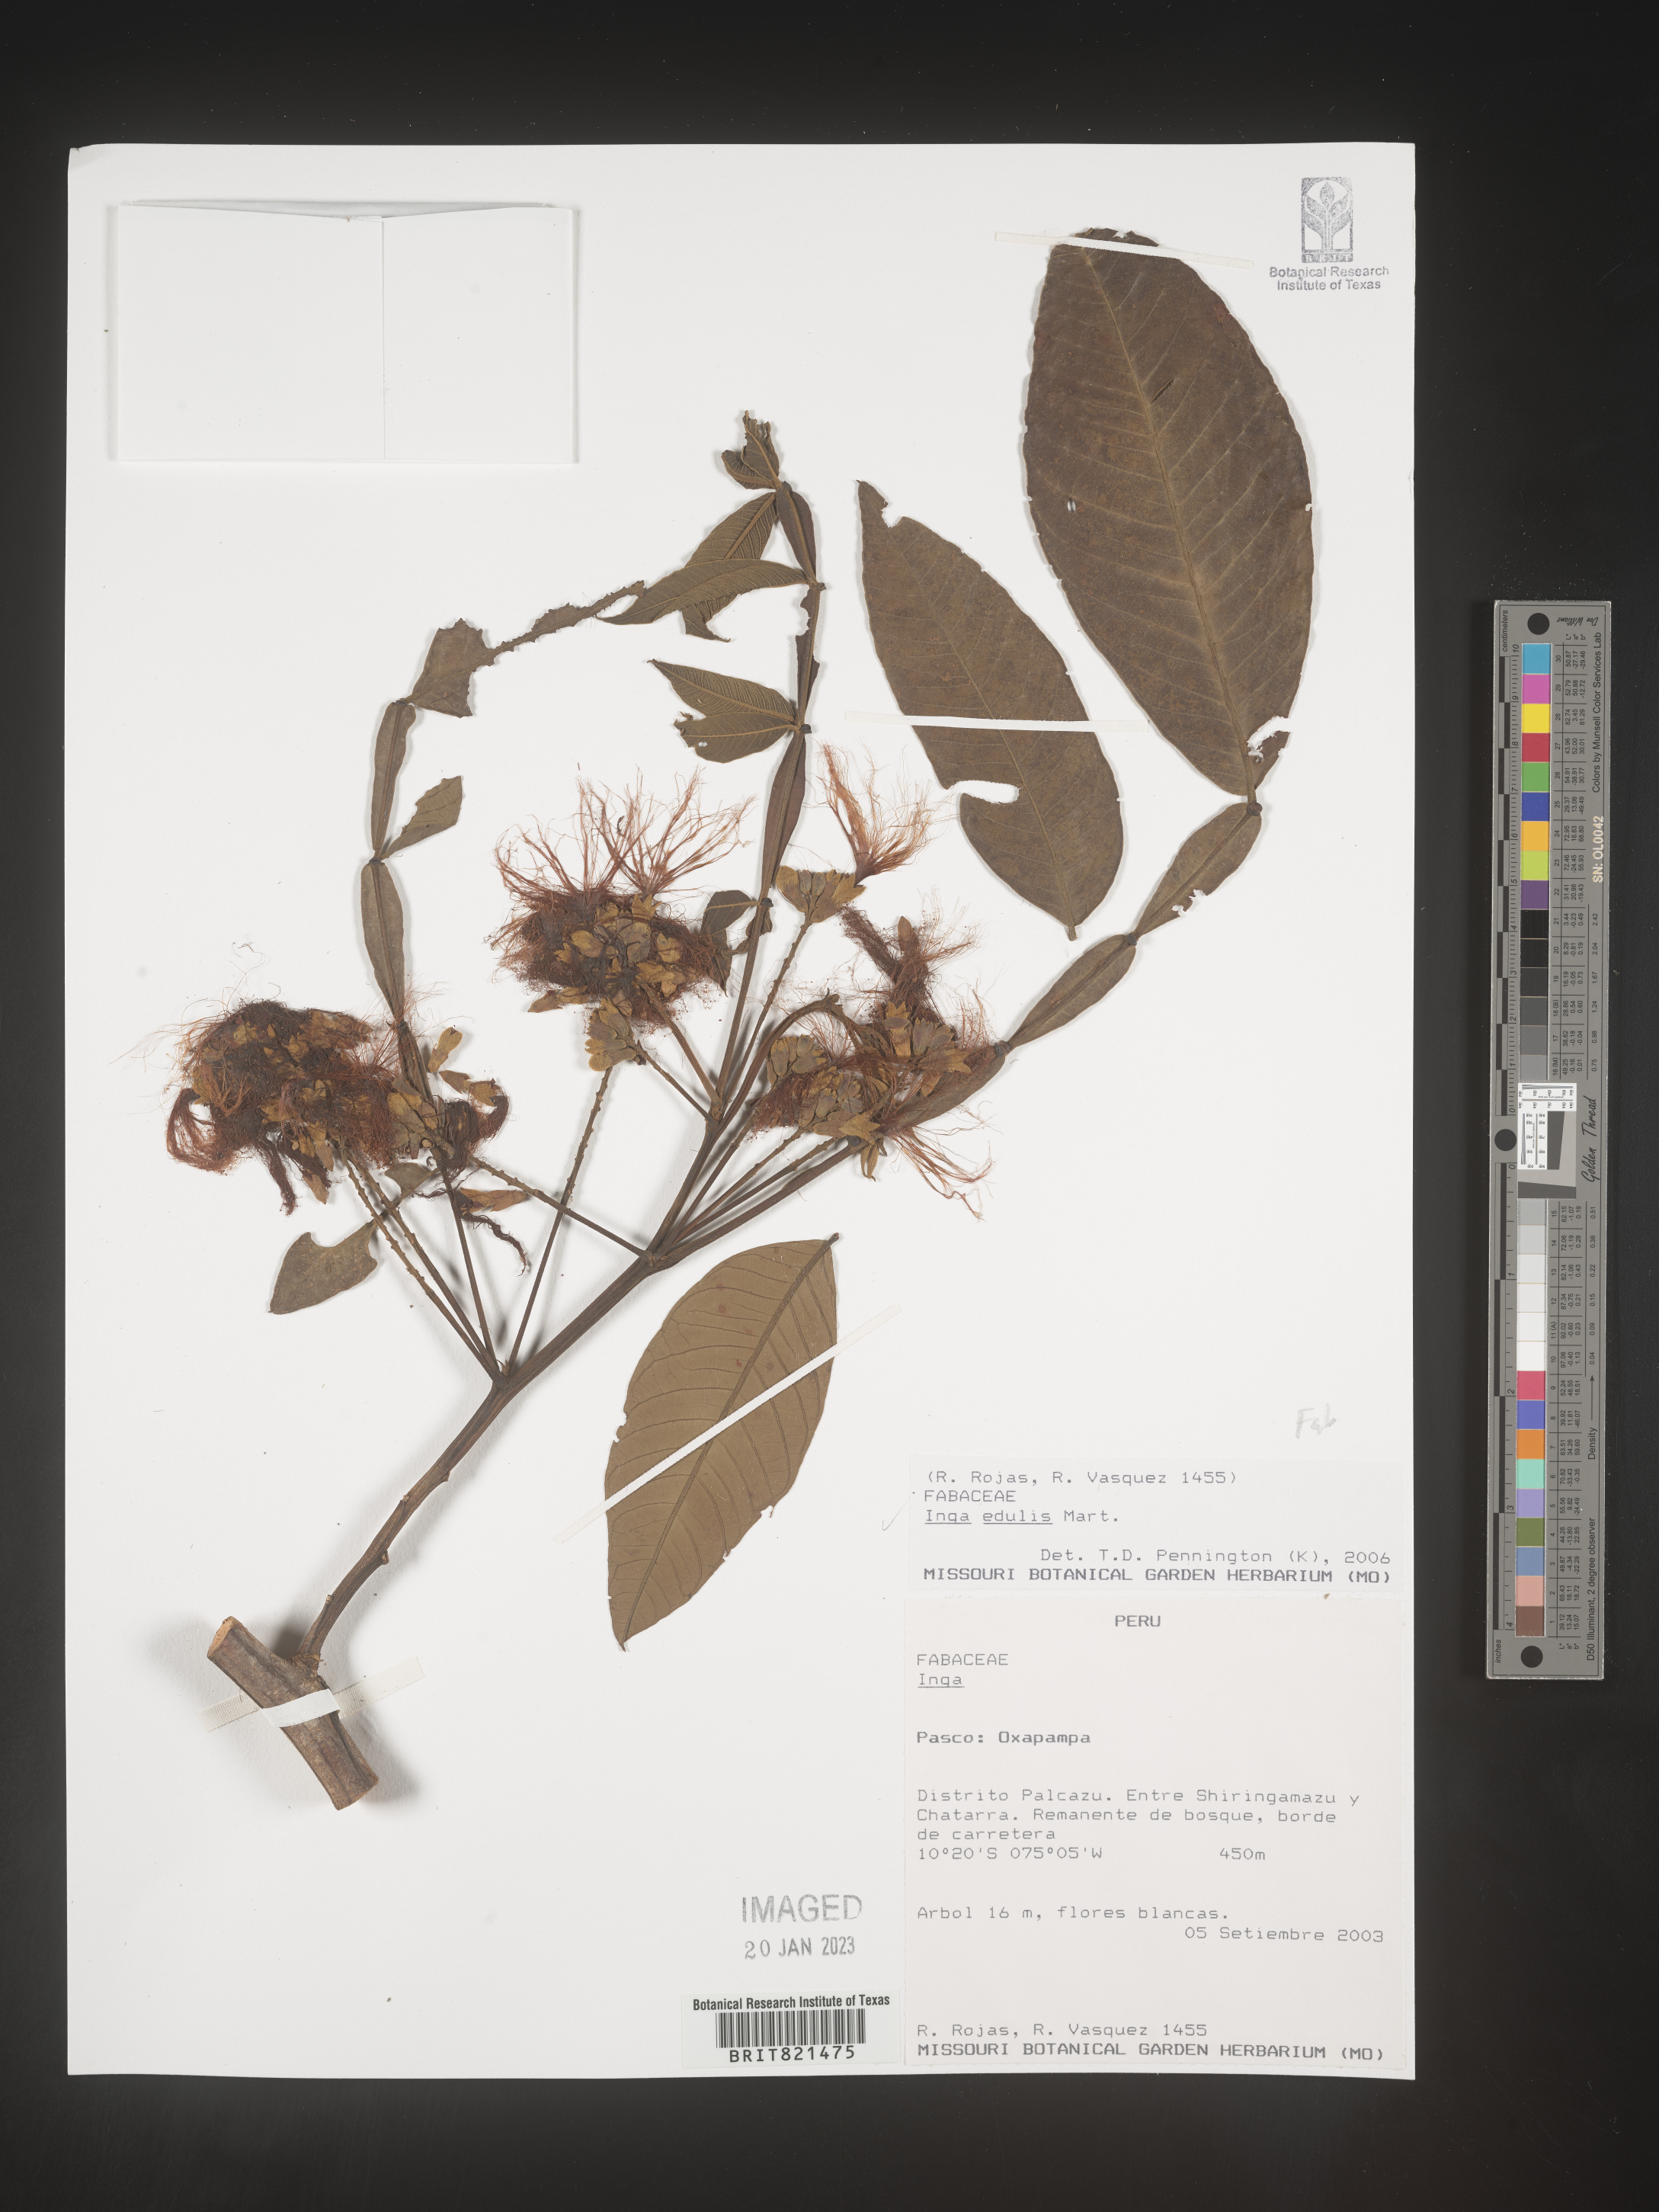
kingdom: Plantae
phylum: Tracheophyta
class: Magnoliopsida
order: Fabales
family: Fabaceae
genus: Inga
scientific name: Inga
